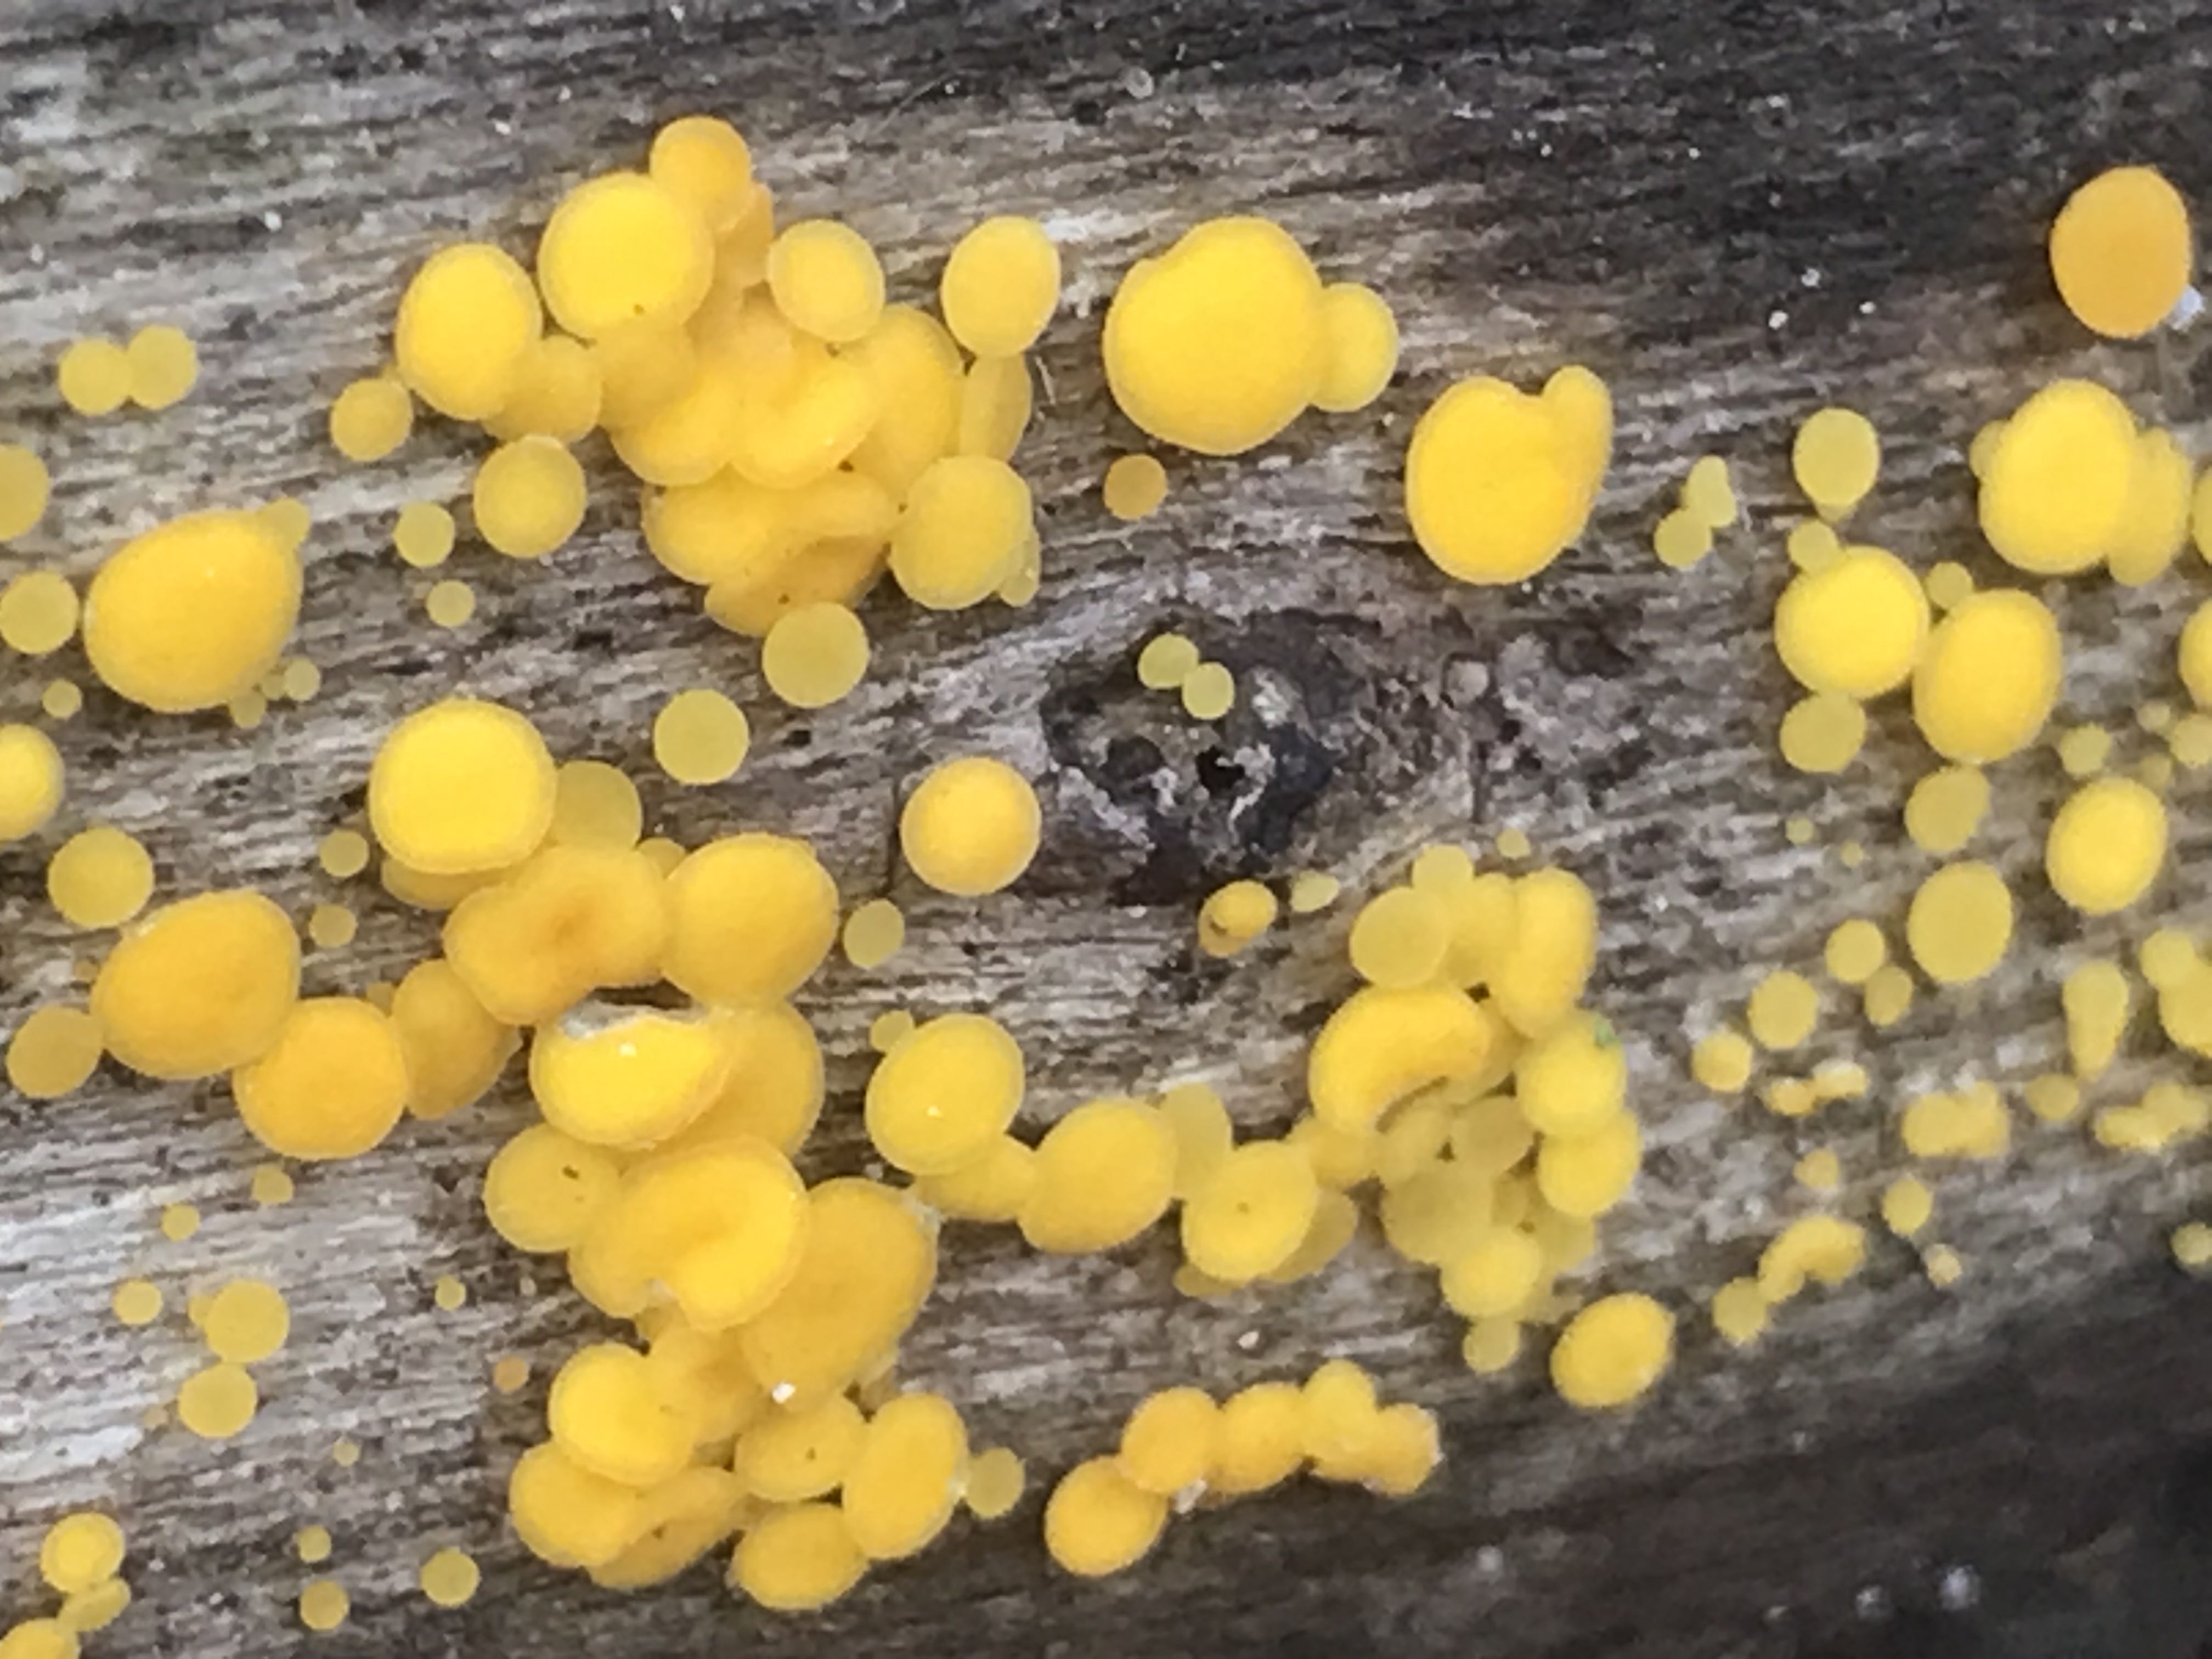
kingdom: Fungi
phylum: Ascomycota
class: Leotiomycetes
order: Helotiales
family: Pezizellaceae
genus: Calycina
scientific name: Calycina citrina
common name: almindelig gulskive
